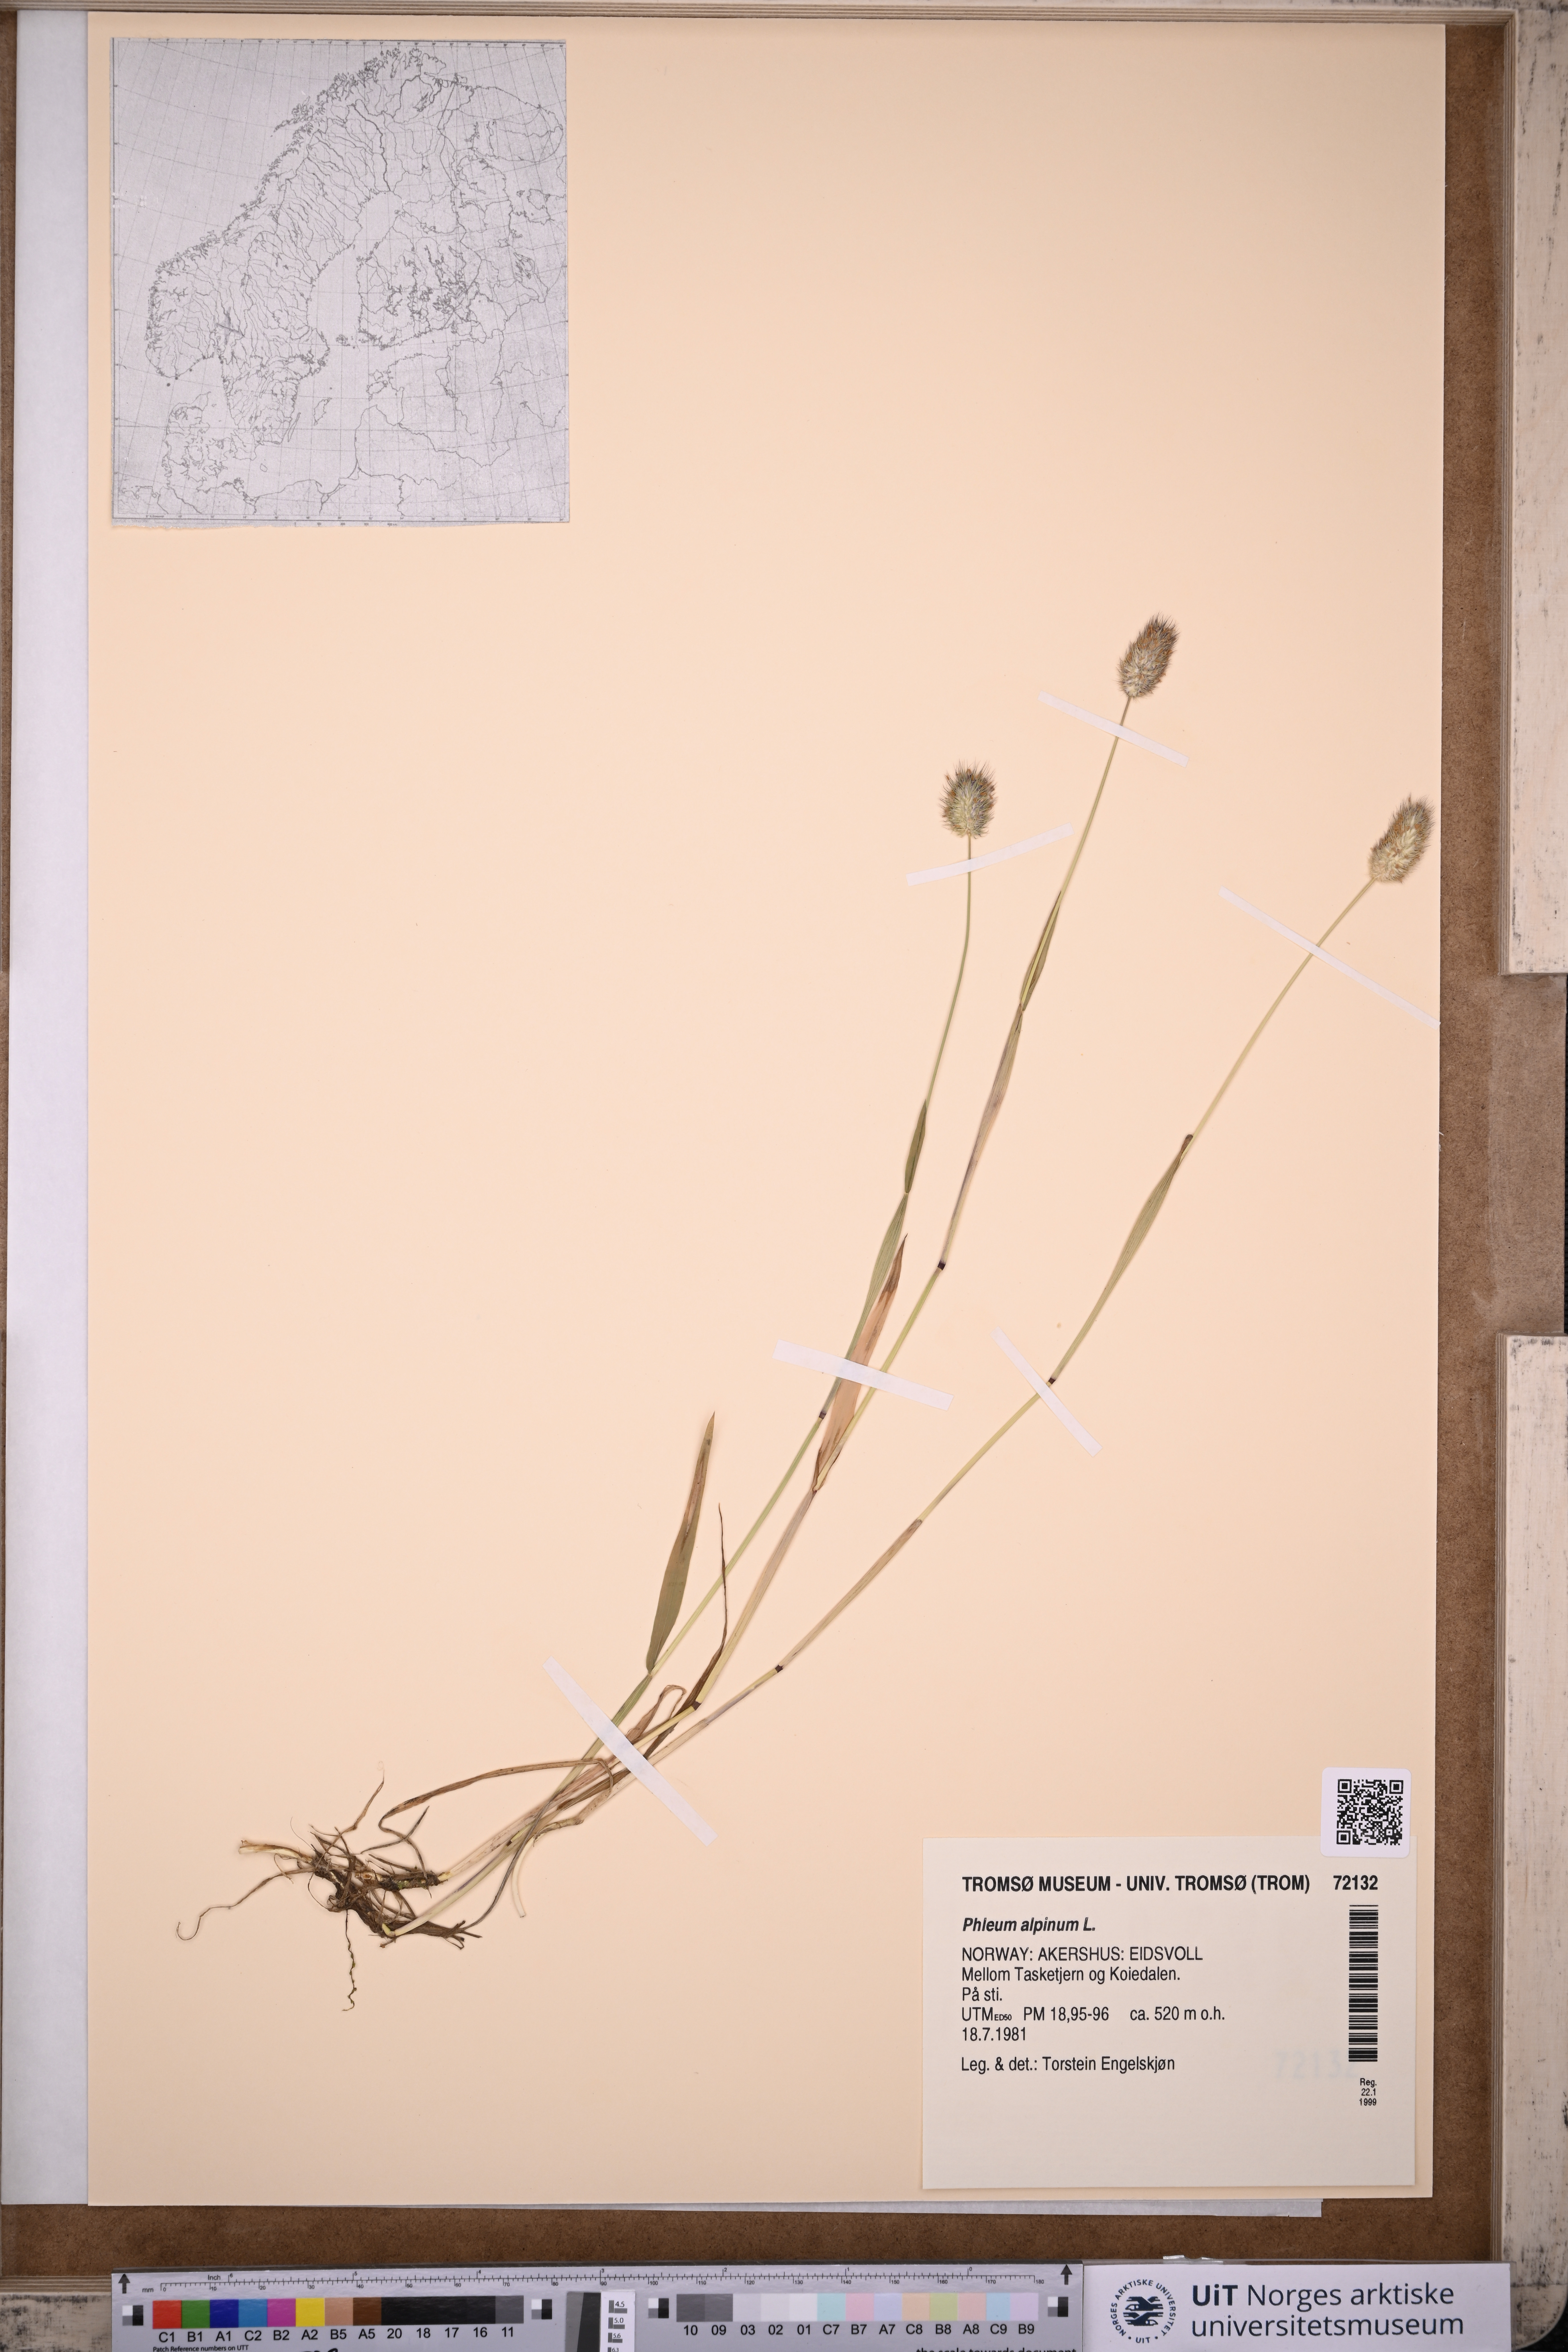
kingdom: Plantae
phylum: Tracheophyta
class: Liliopsida
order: Poales
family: Poaceae
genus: Phleum
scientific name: Phleum alpinum
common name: Alpine cat's-tail
